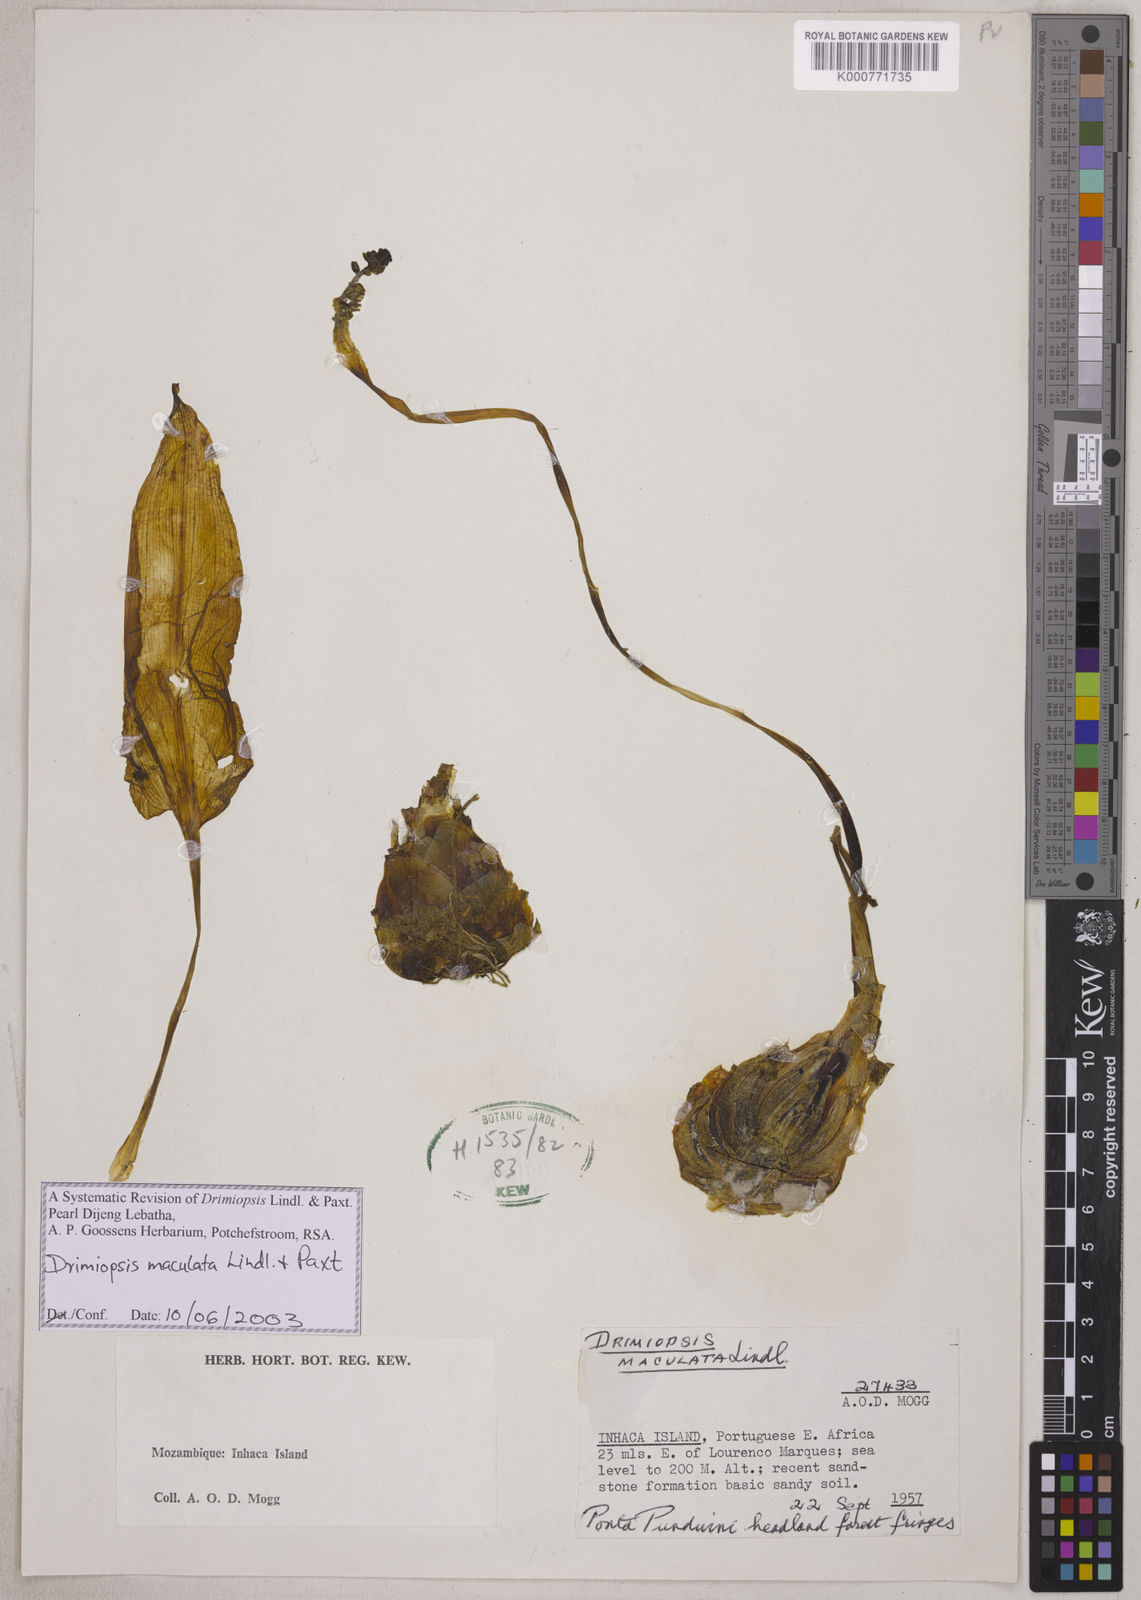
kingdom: Plantae
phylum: Tracheophyta
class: Liliopsida
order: Asparagales
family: Asparagaceae
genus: Drimiopsis
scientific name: Drimiopsis maculata
